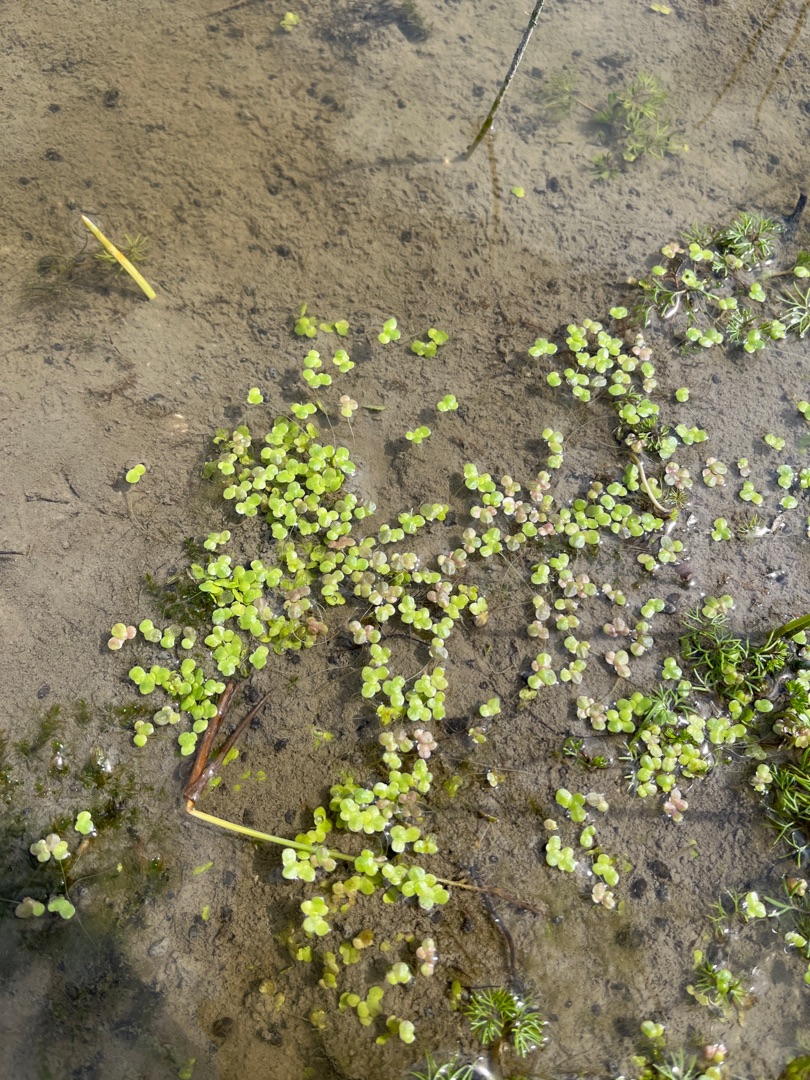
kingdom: Plantae
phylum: Tracheophyta
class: Liliopsida
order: Alismatales
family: Araceae
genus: Lemna
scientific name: Lemna minor
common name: Liden andemad
